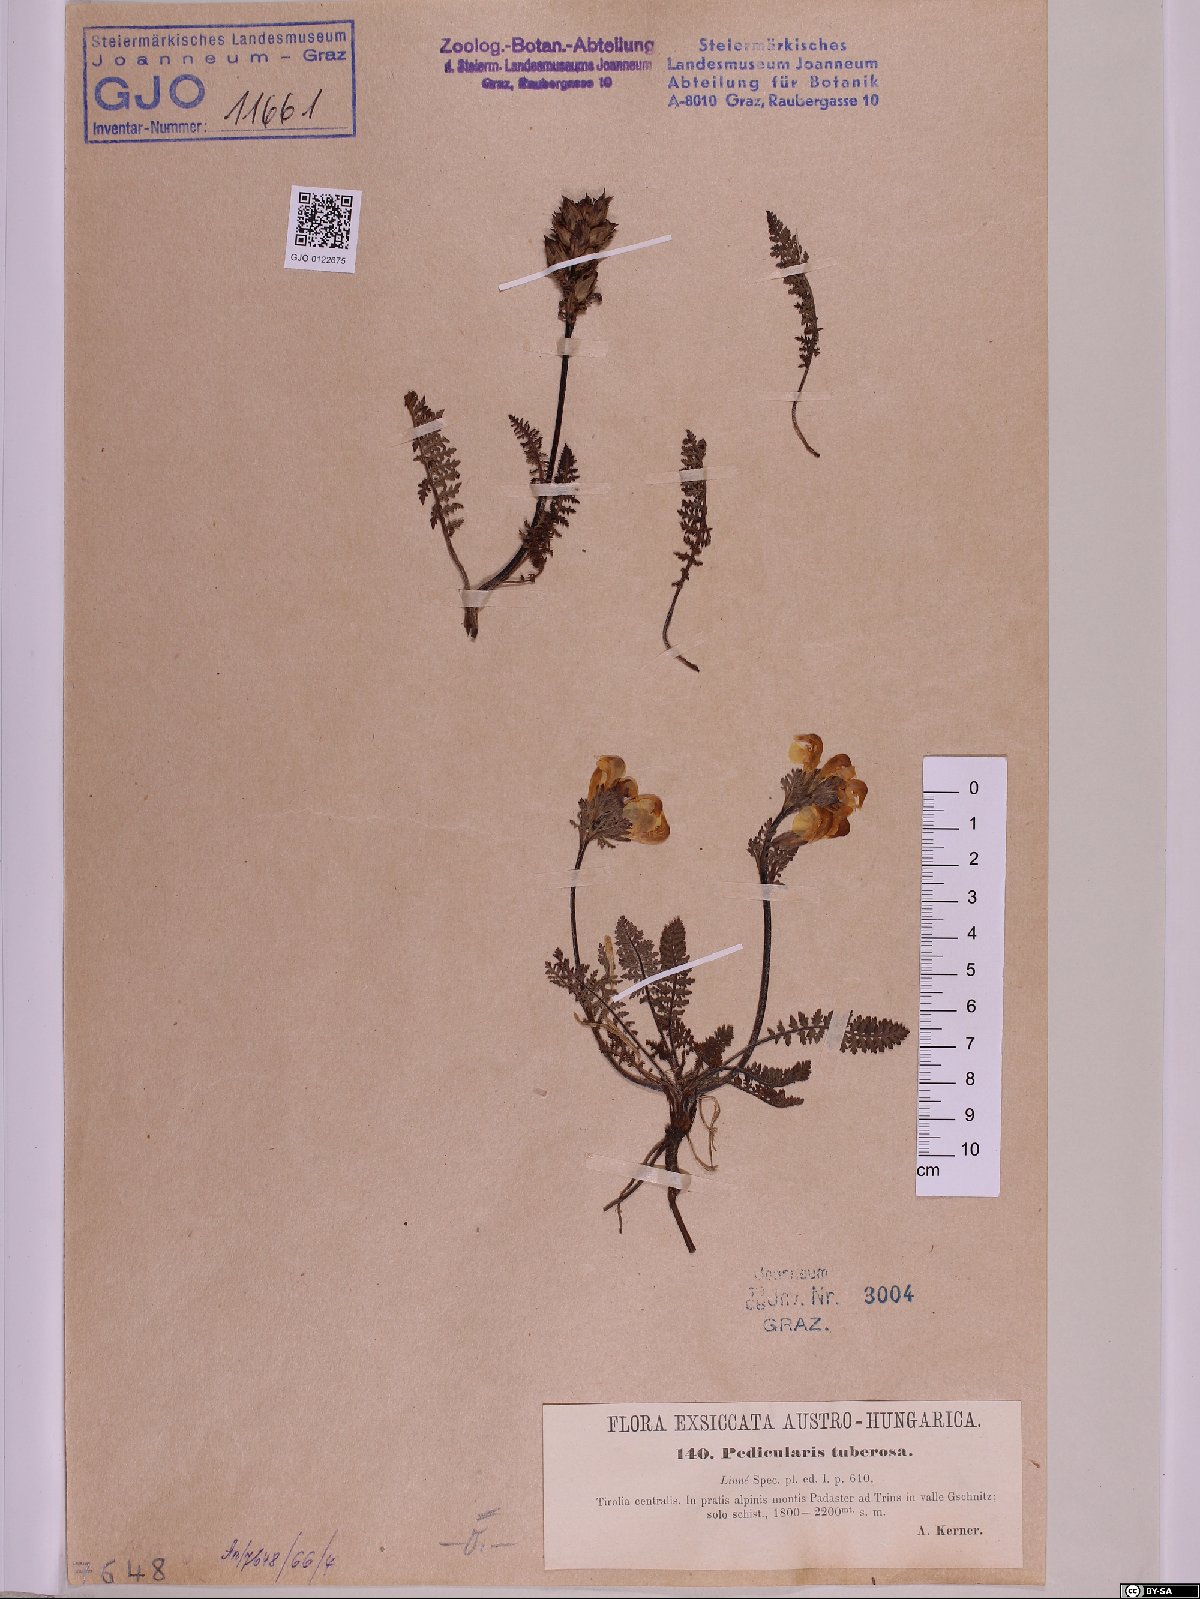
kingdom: Plantae
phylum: Tracheophyta
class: Magnoliopsida
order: Lamiales
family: Orobanchaceae
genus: Pedicularis
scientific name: Pedicularis tuberosa
